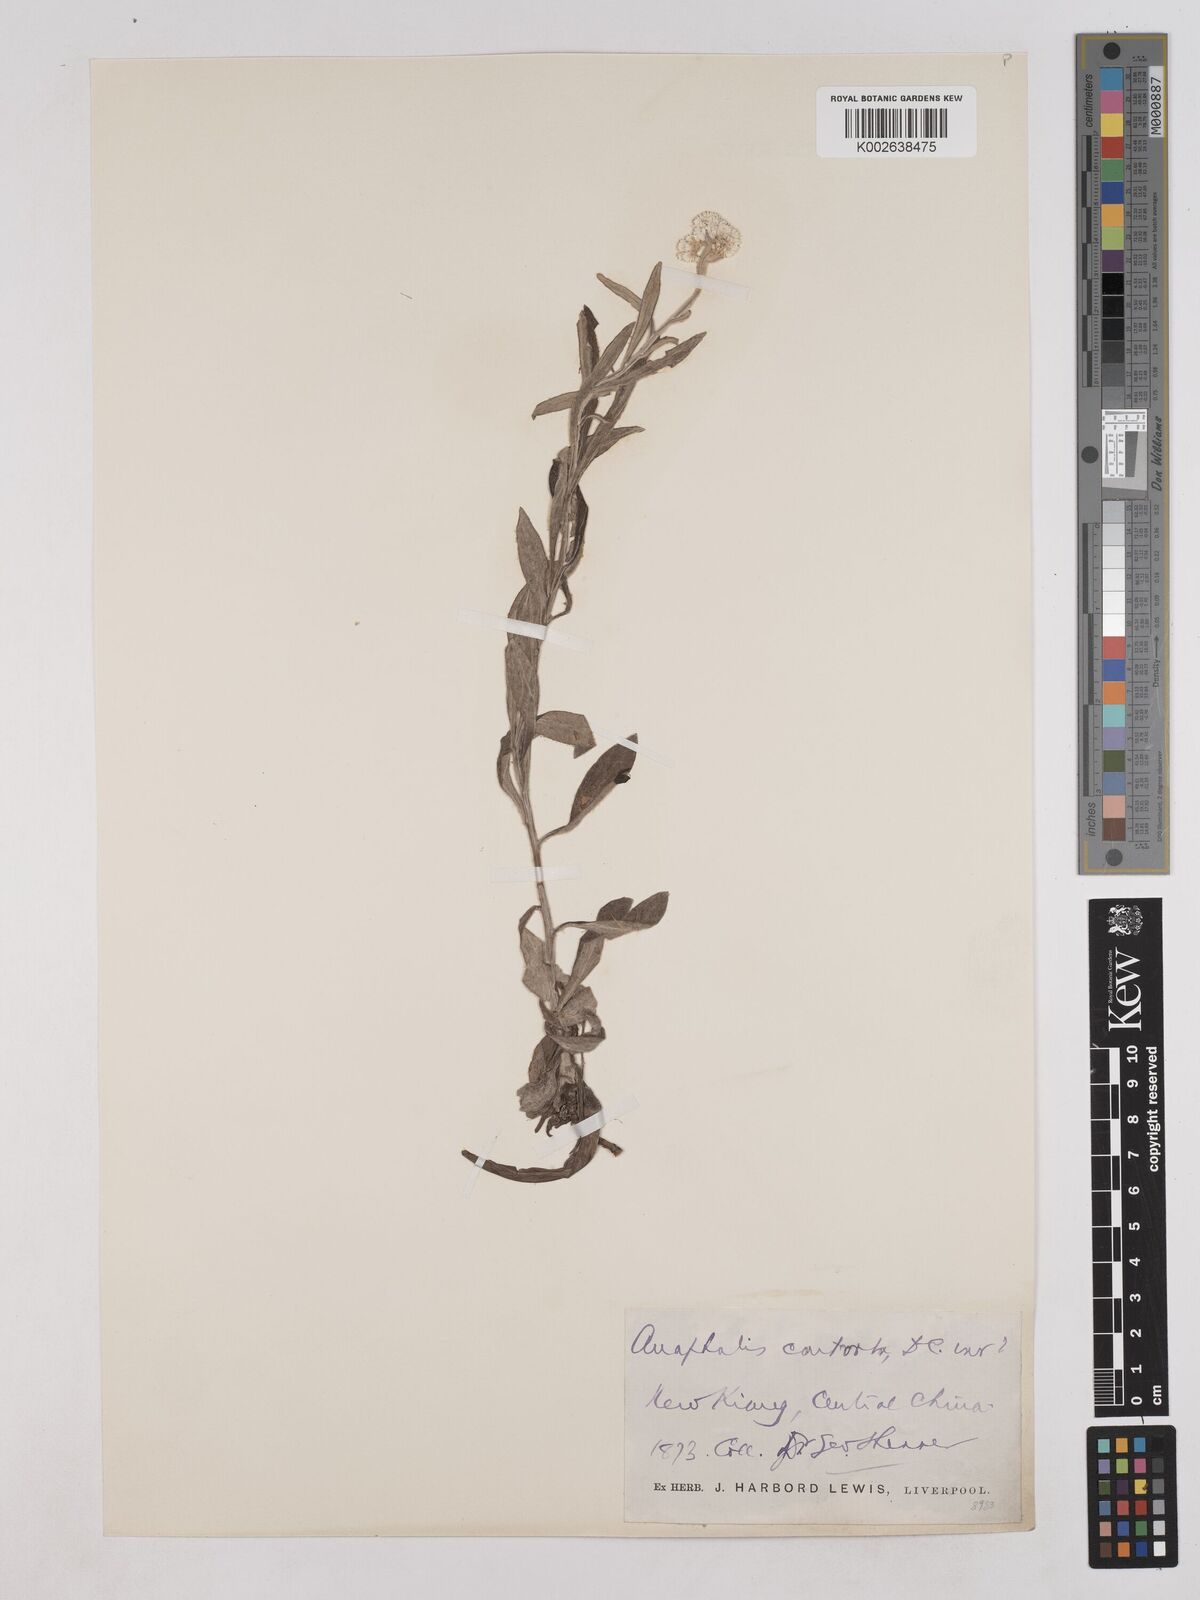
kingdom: Plantae
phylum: Tracheophyta
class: Magnoliopsida
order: Asterales
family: Asteraceae
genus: Anaphalis
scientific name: Anaphalis nepalensis
